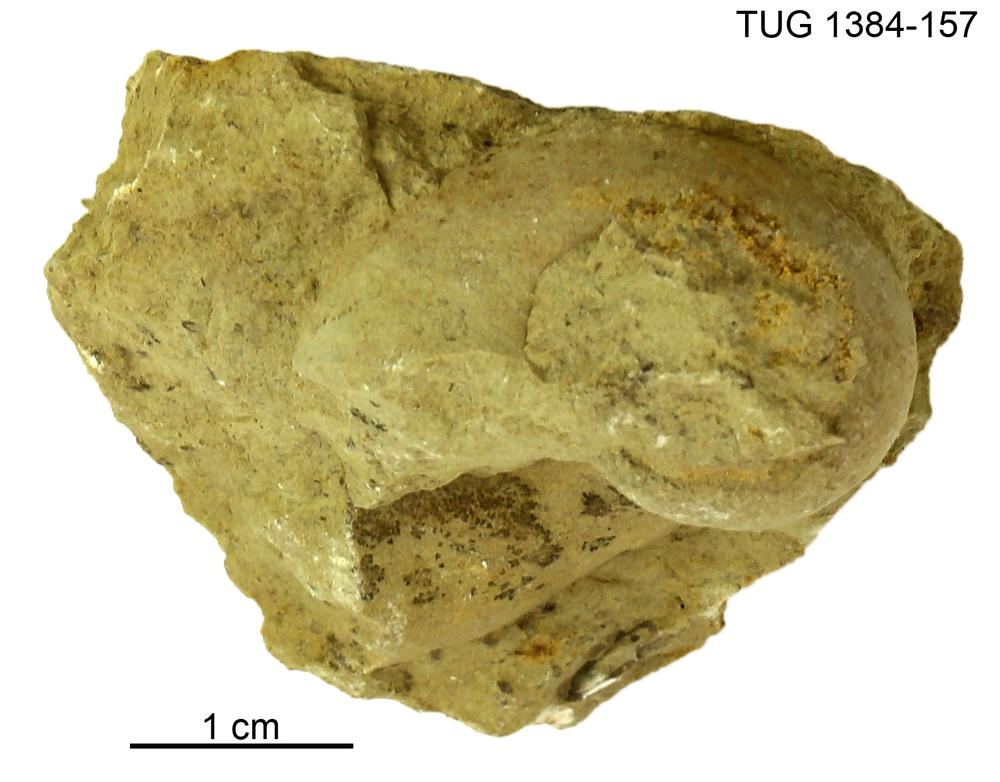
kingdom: Animalia
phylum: Mollusca
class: Gastropoda
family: Bellerophontidae
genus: Bellerophon
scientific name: Bellerophon compressus
